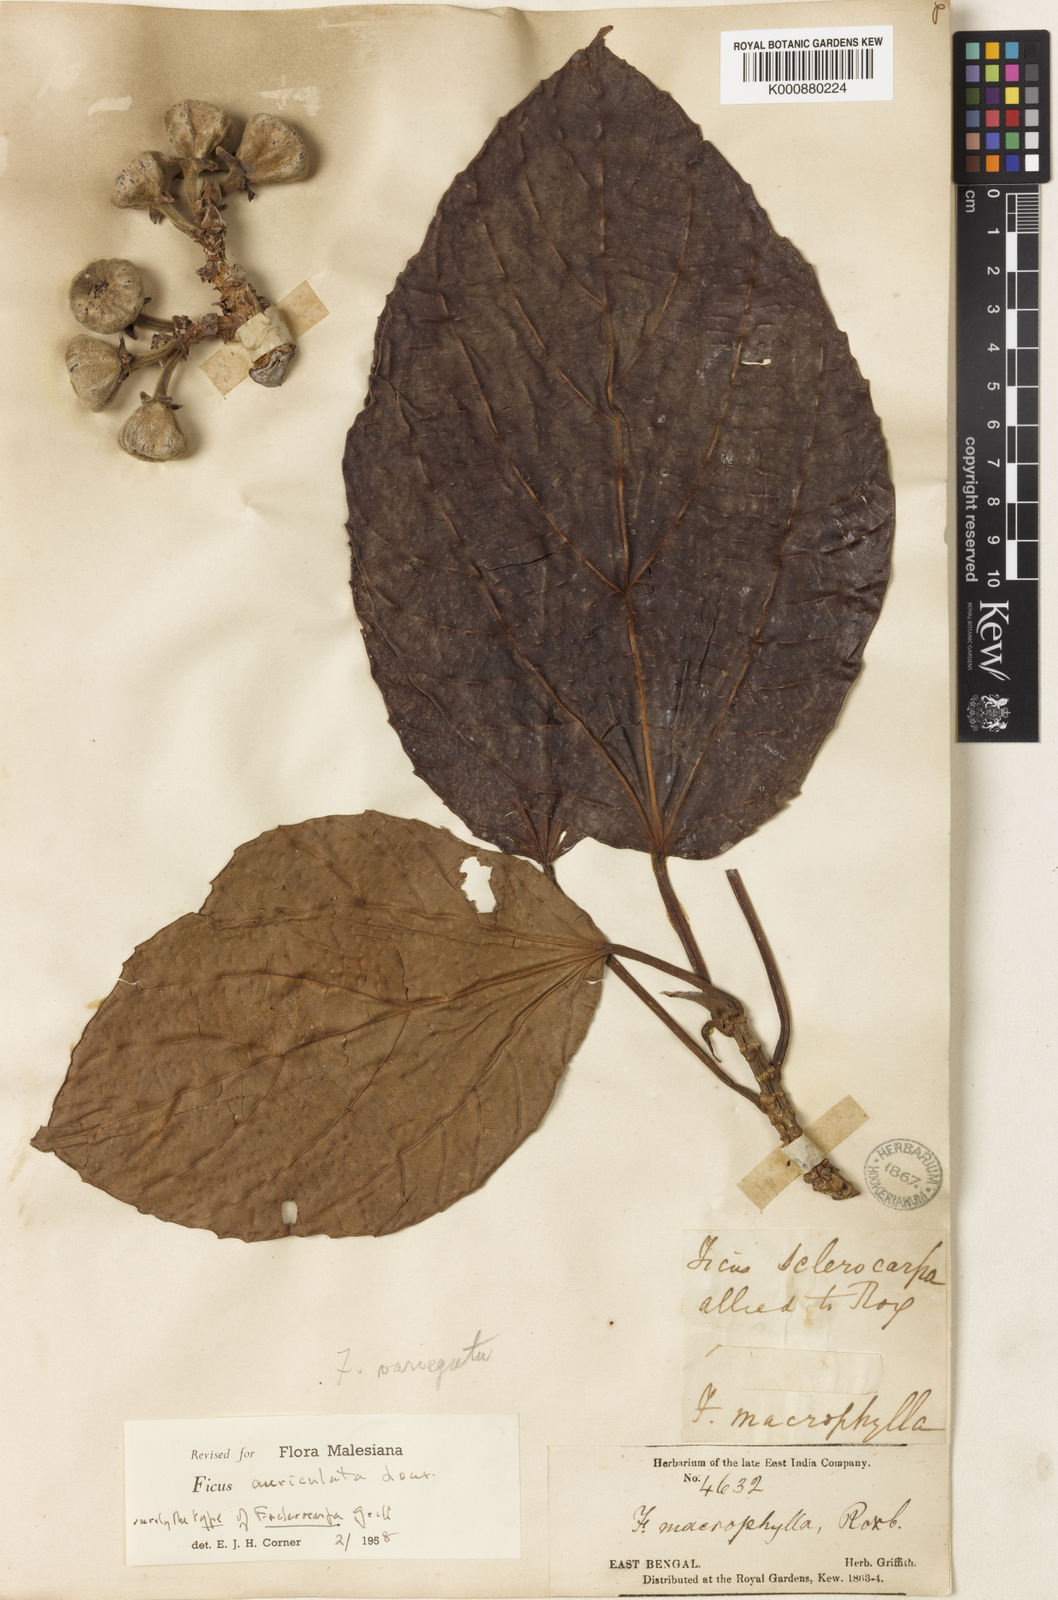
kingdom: Plantae
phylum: Tracheophyta
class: Magnoliopsida
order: Rosales
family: Moraceae
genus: Ficus
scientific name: Ficus auriculata
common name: Roxburgh fig
